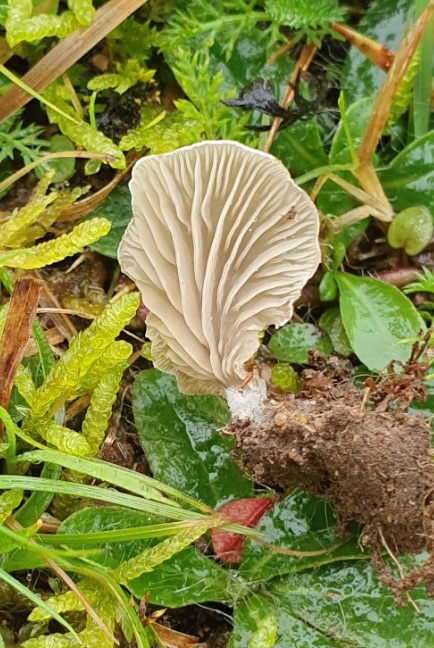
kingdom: Fungi
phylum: Basidiomycota
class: Agaricomycetes
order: Agaricales
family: Hygrophoraceae
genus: Arrhenia
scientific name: Arrhenia glauca
